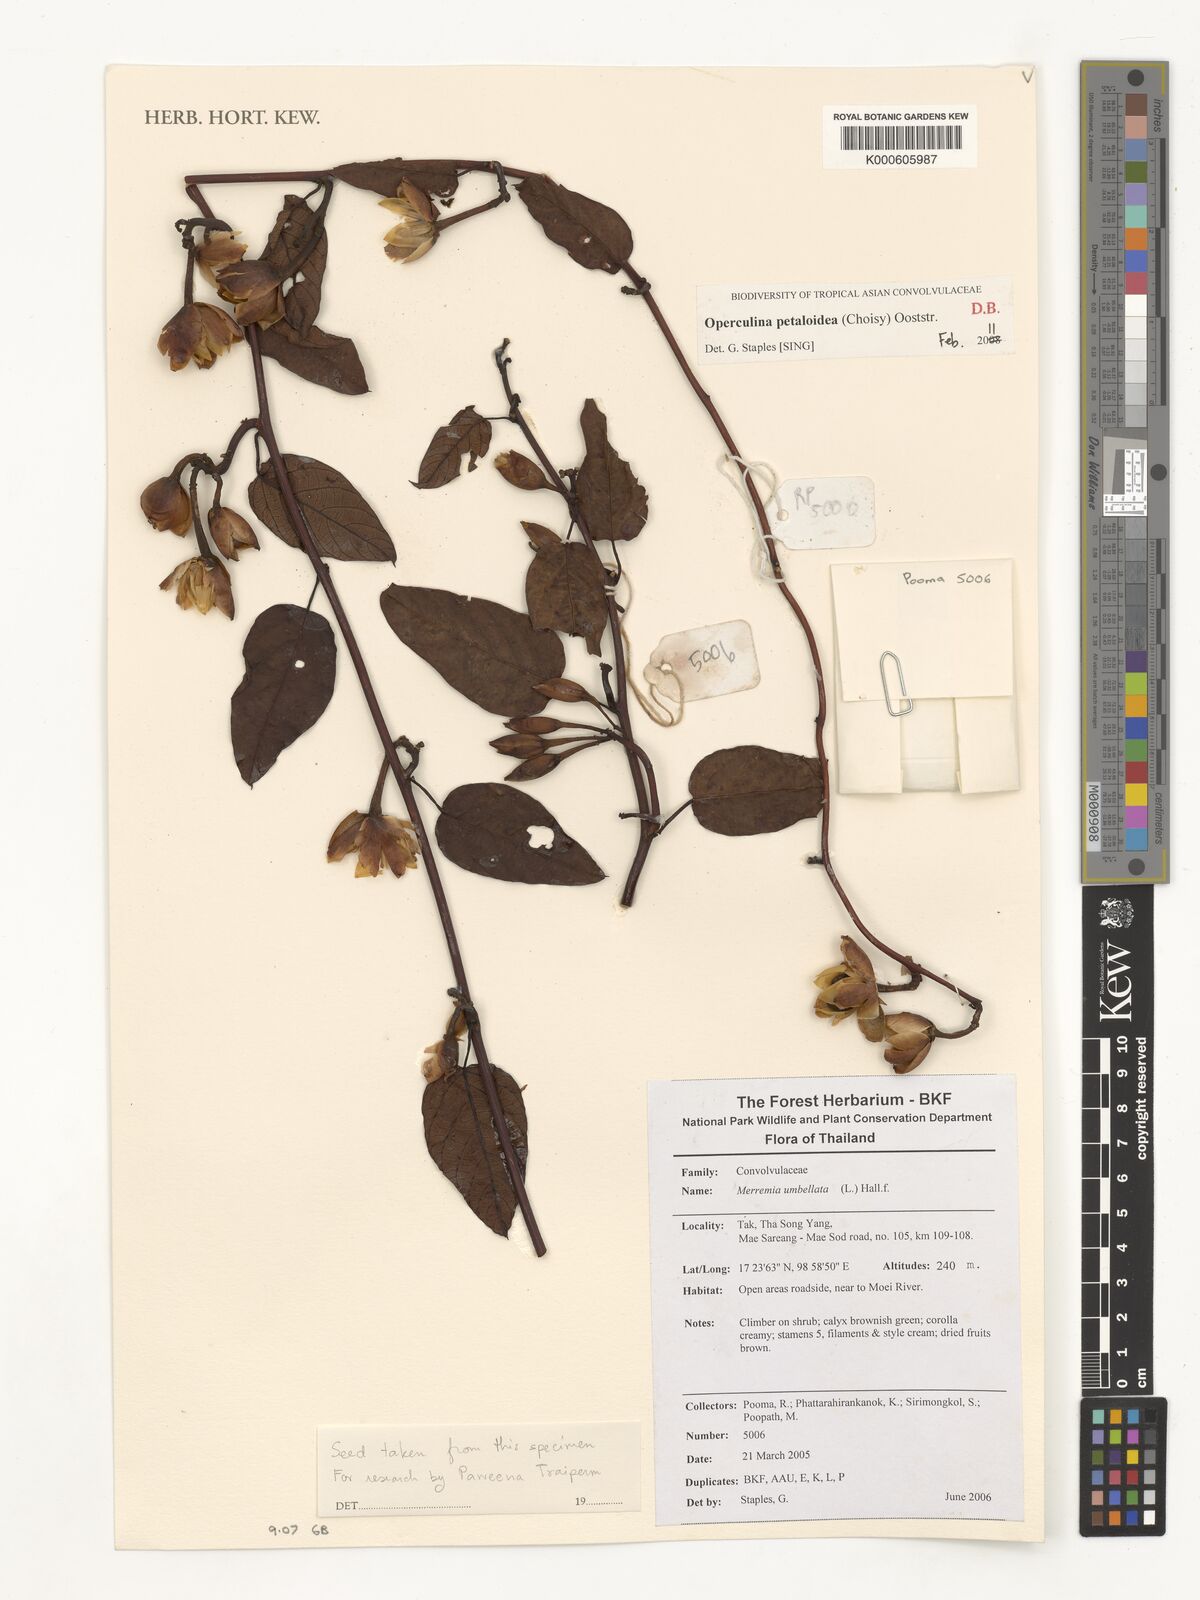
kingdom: Plantae
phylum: Tracheophyta
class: Magnoliopsida
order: Solanales
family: Convolvulaceae
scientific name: Convolvulaceae
